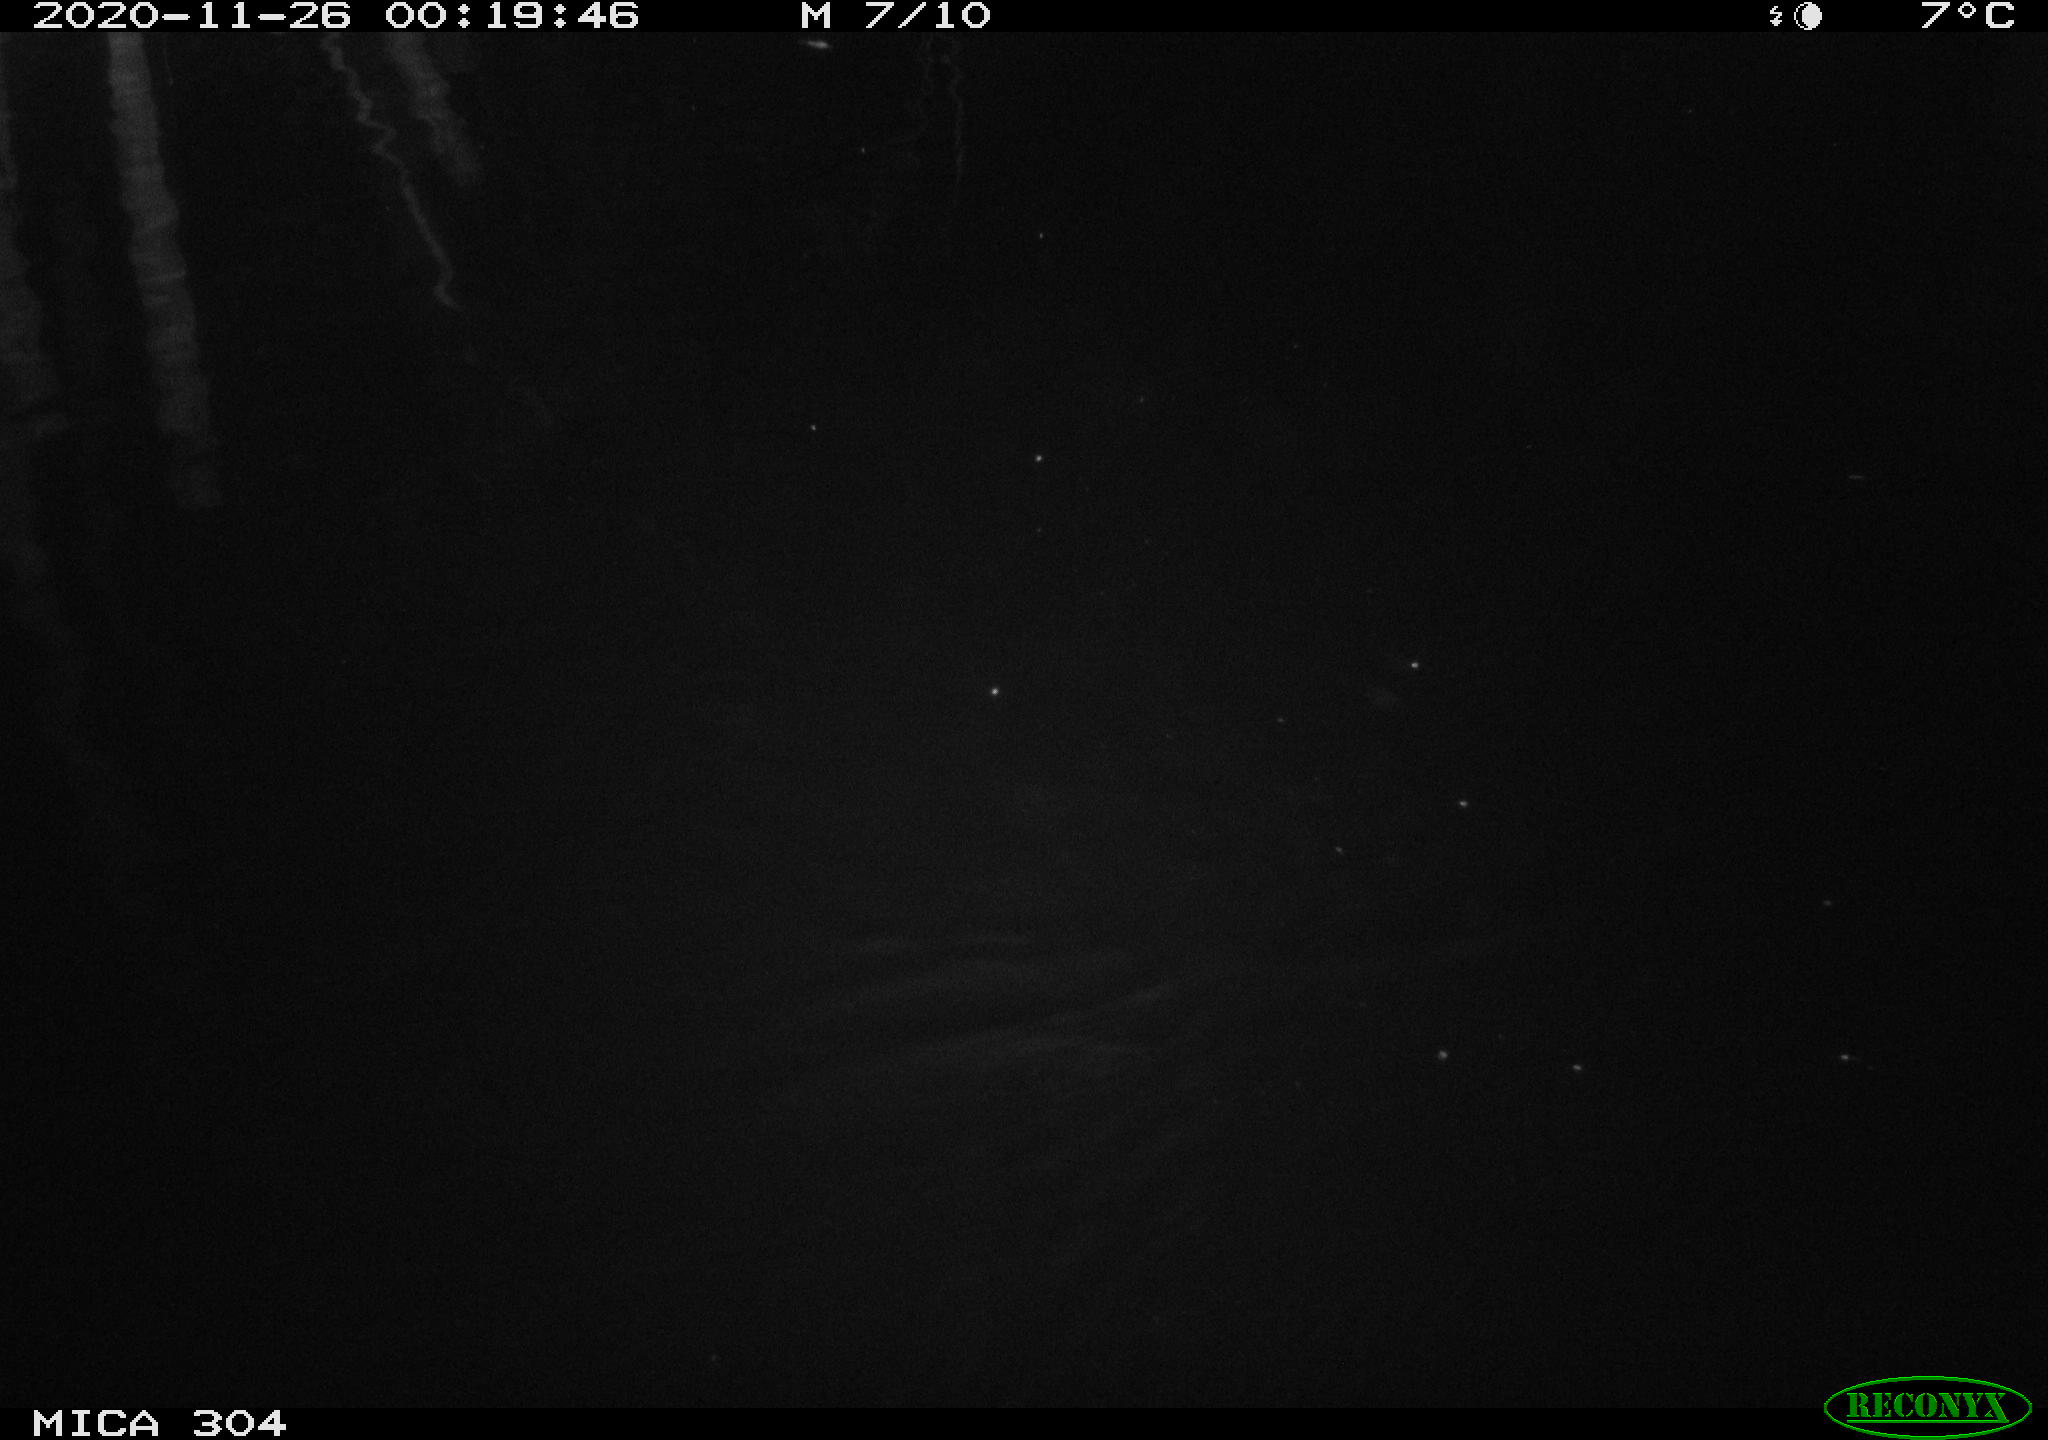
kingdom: Animalia
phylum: Chordata
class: Aves
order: Gruiformes
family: Rallidae
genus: Gallinula
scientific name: Gallinula chloropus
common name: Common moorhen
